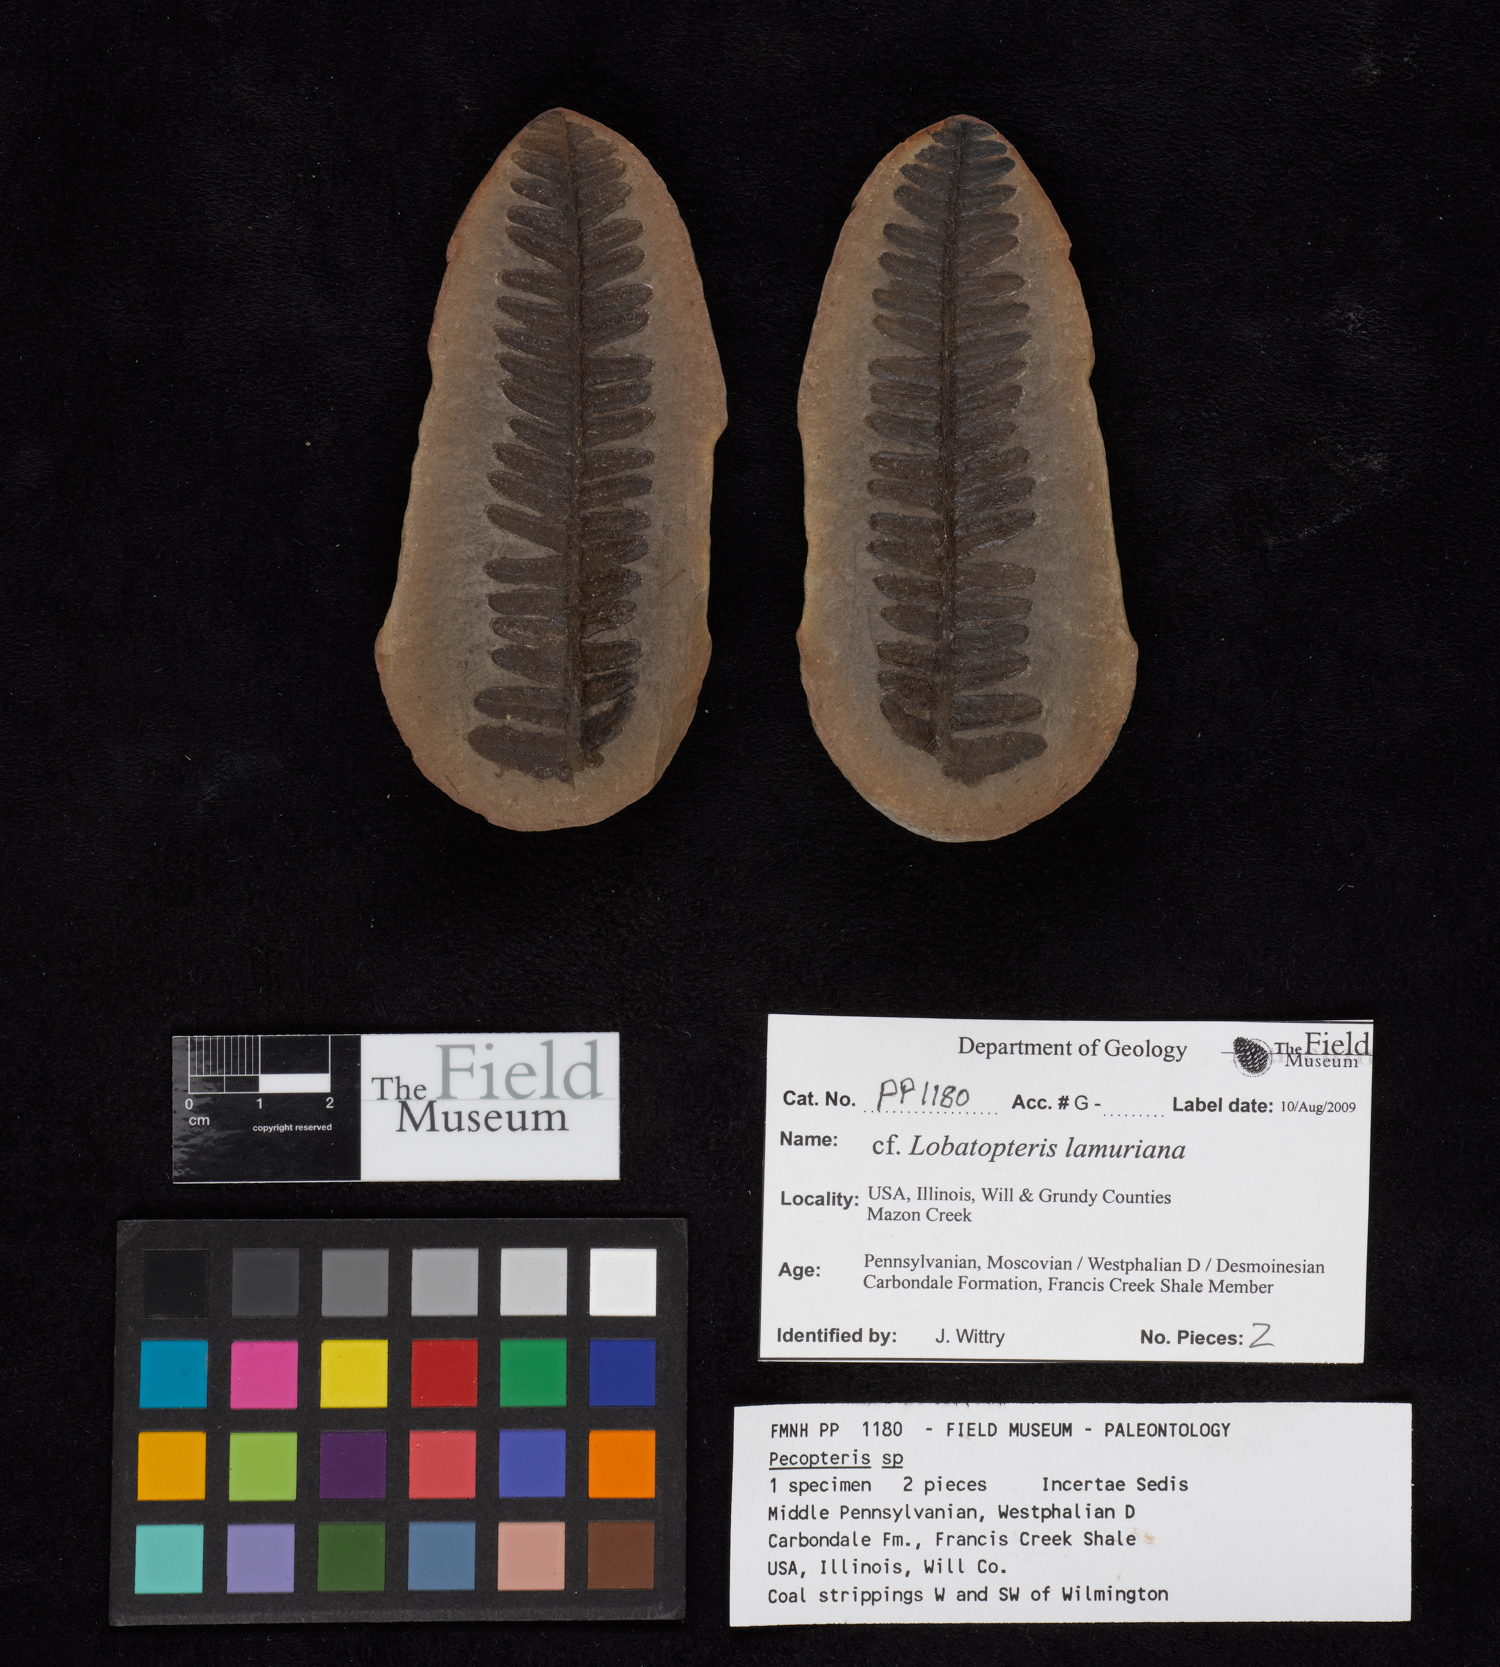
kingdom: Plantae
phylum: Tracheophyta
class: Polypodiopsida
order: Marattiales
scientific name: Marattiales
